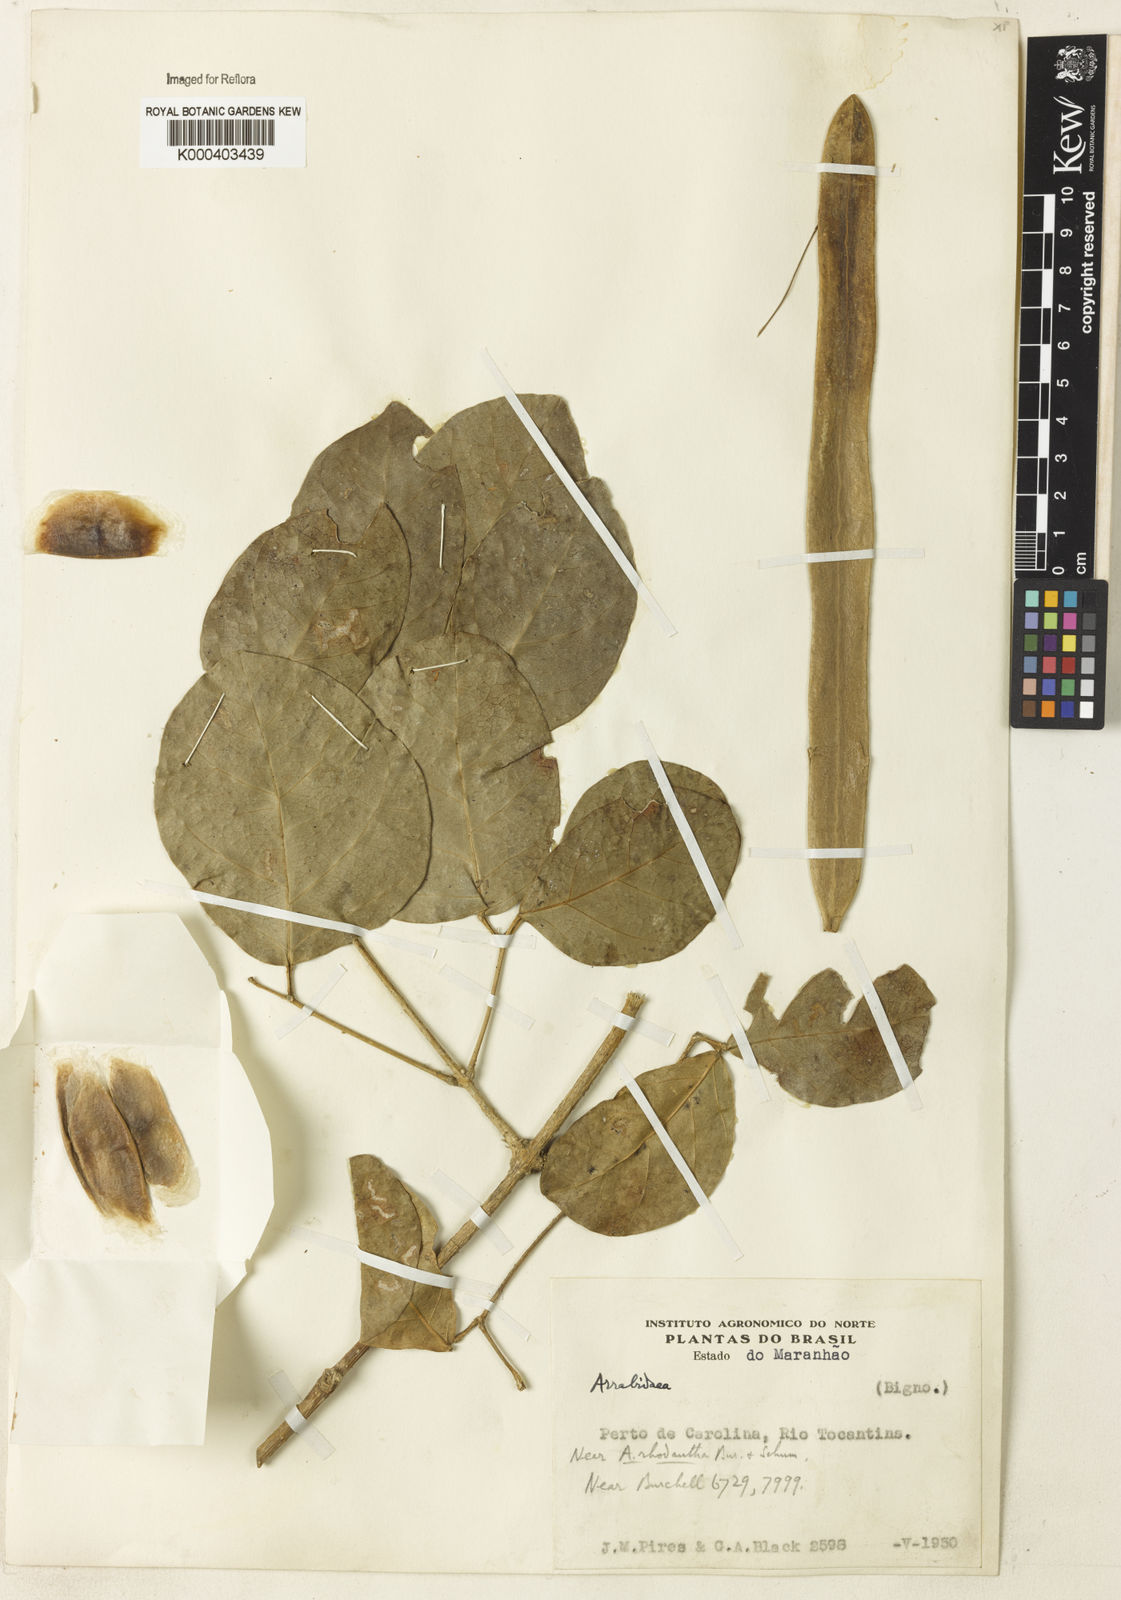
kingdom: Plantae
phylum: Tracheophyta
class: Magnoliopsida
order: Rosales
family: Rhamnaceae
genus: Arrabidaea
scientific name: Arrabidaea
